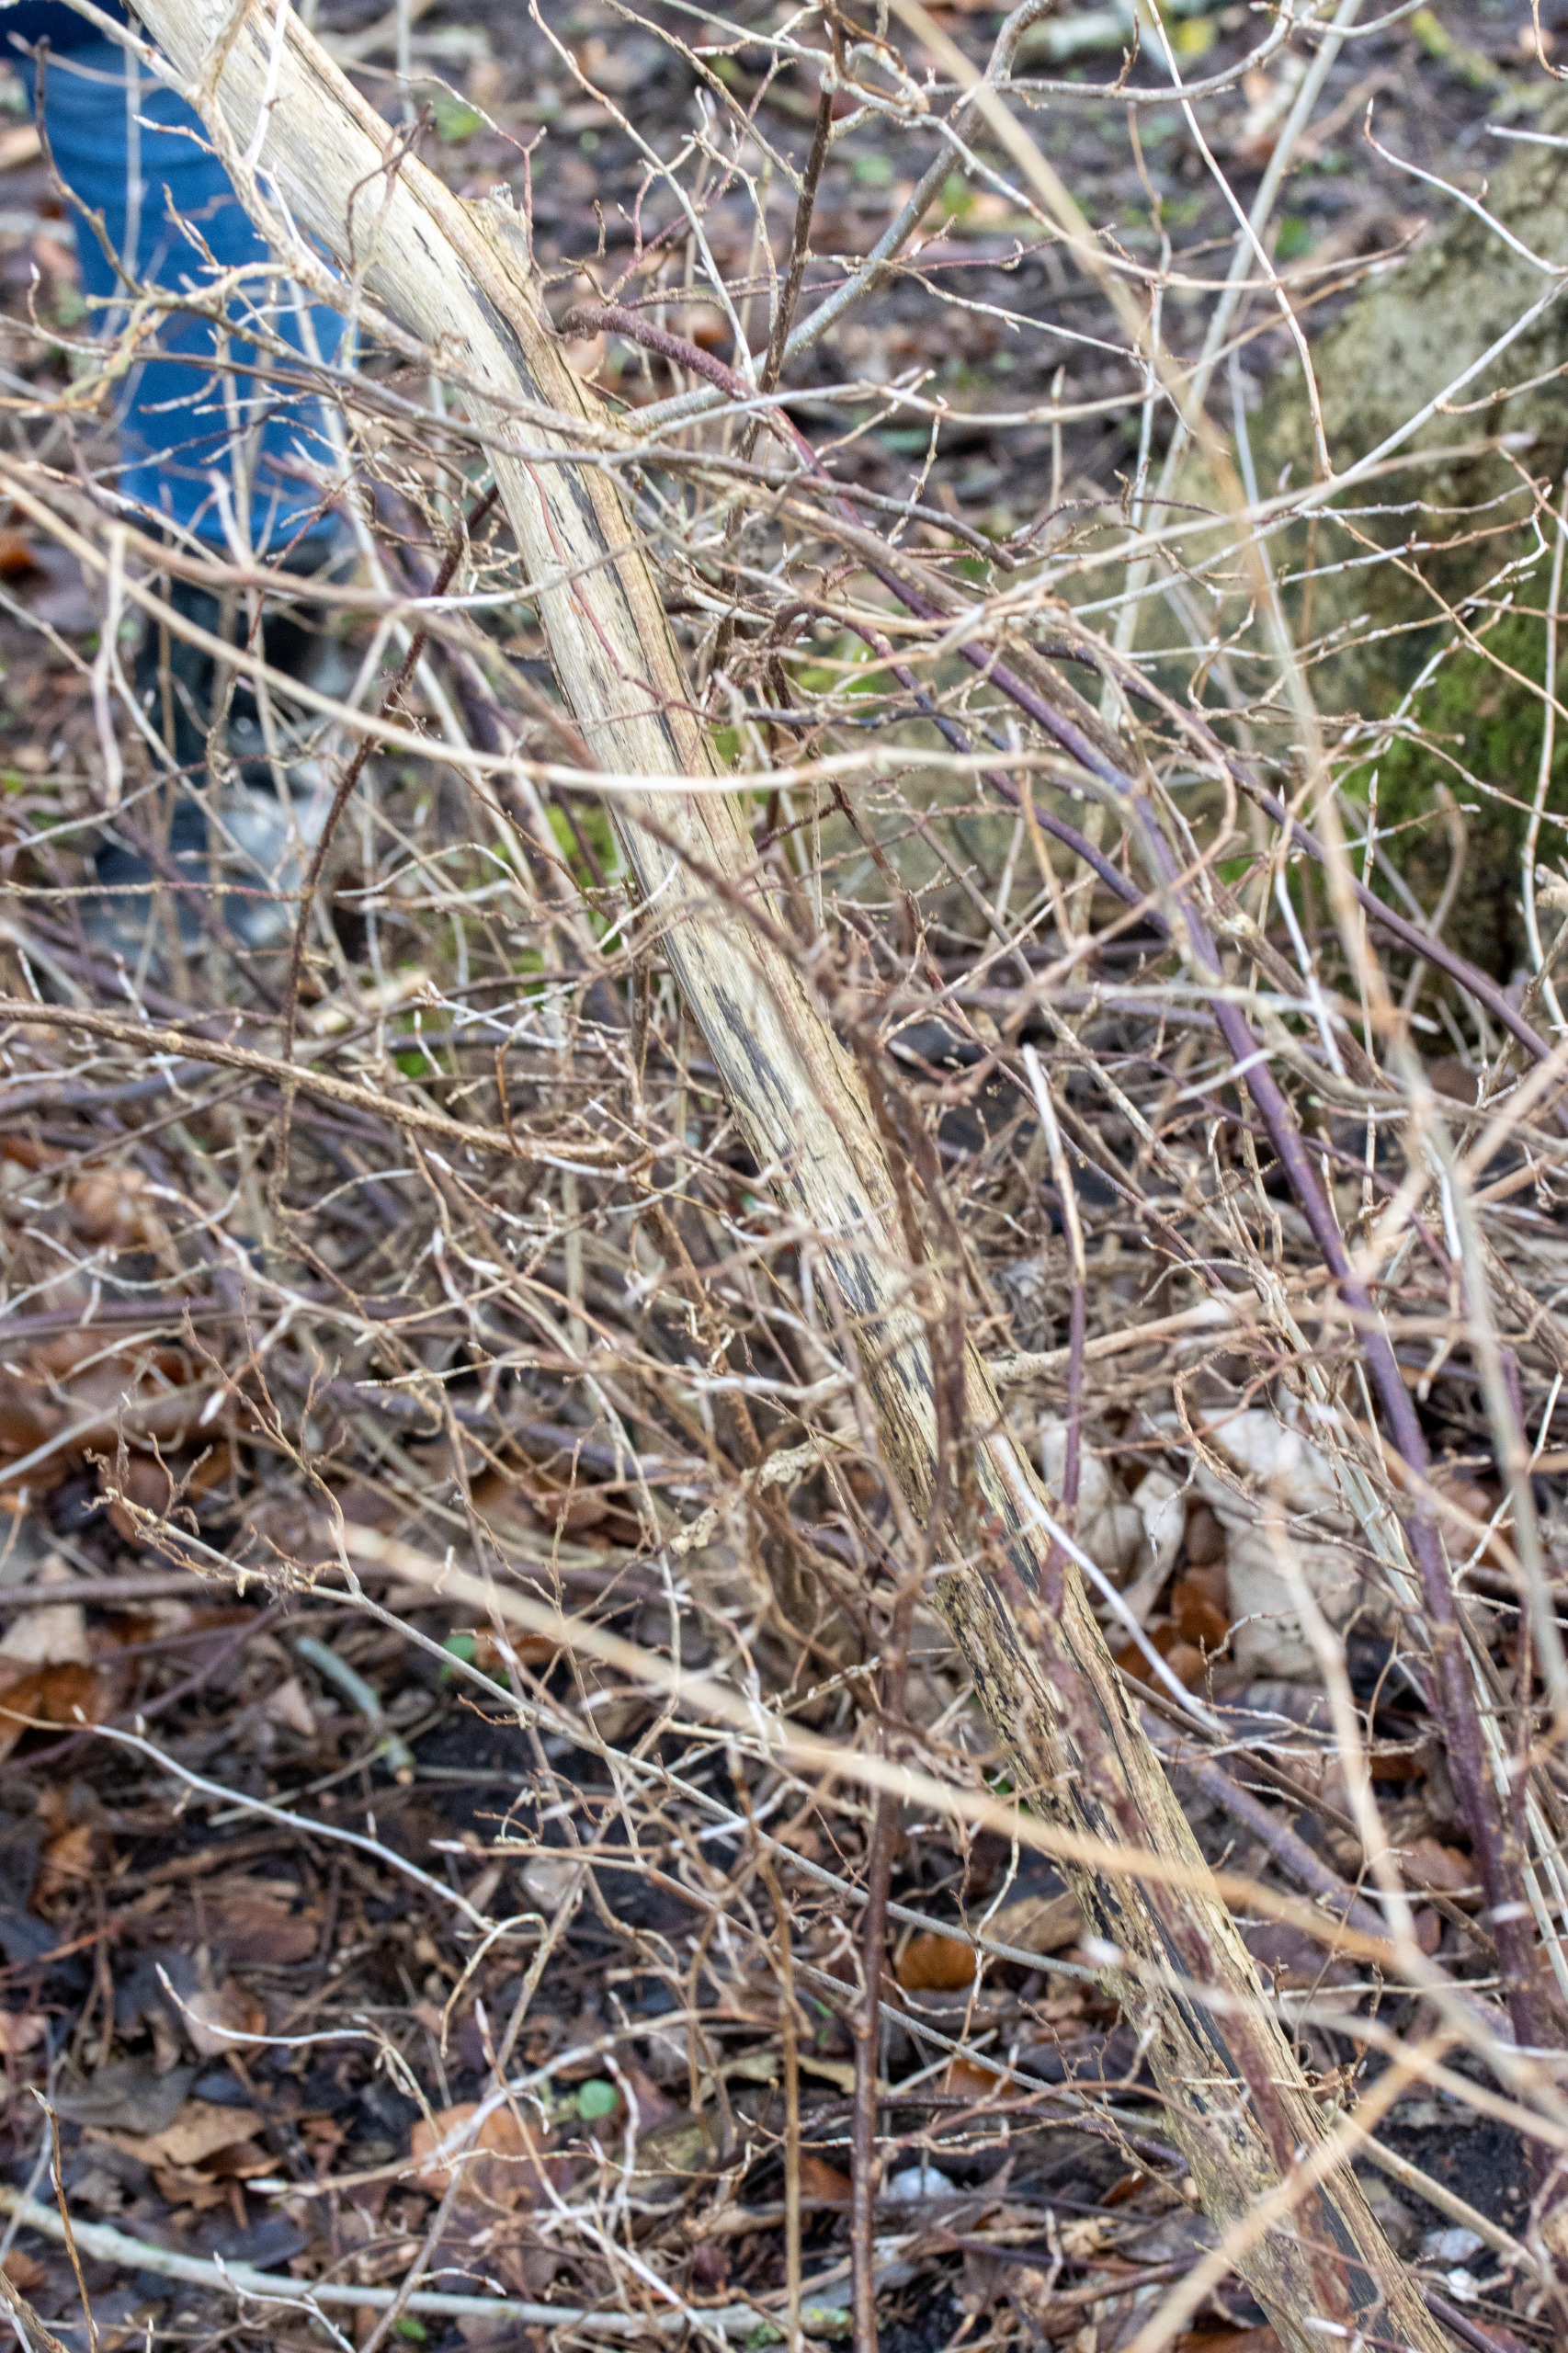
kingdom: Plantae
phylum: Tracheophyta
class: Magnoliopsida
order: Saxifragales
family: Grossulariaceae
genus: Ribes
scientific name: Ribes alpinum
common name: Fjeld-ribs
